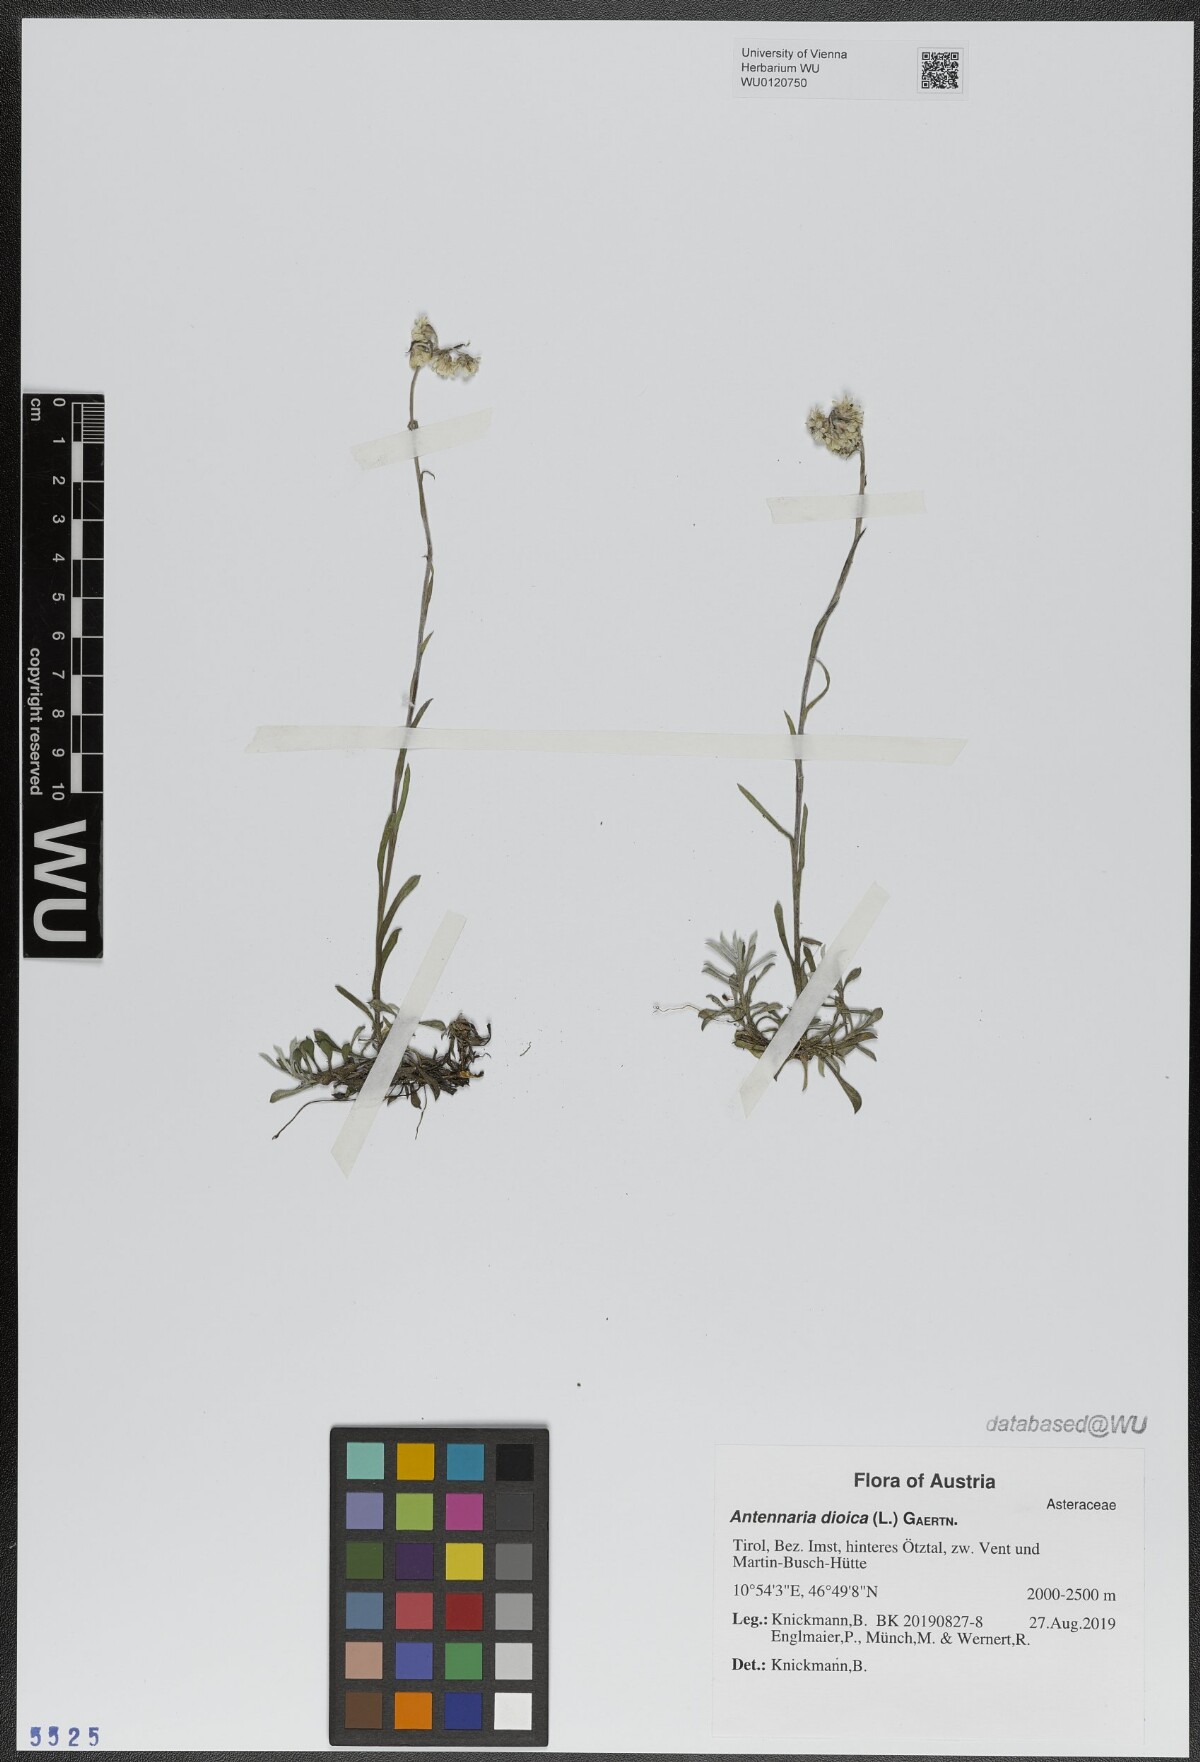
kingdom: Plantae
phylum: Tracheophyta
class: Magnoliopsida
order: Asterales
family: Asteraceae
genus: Antennaria
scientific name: Antennaria dioica
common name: Mountain everlasting
